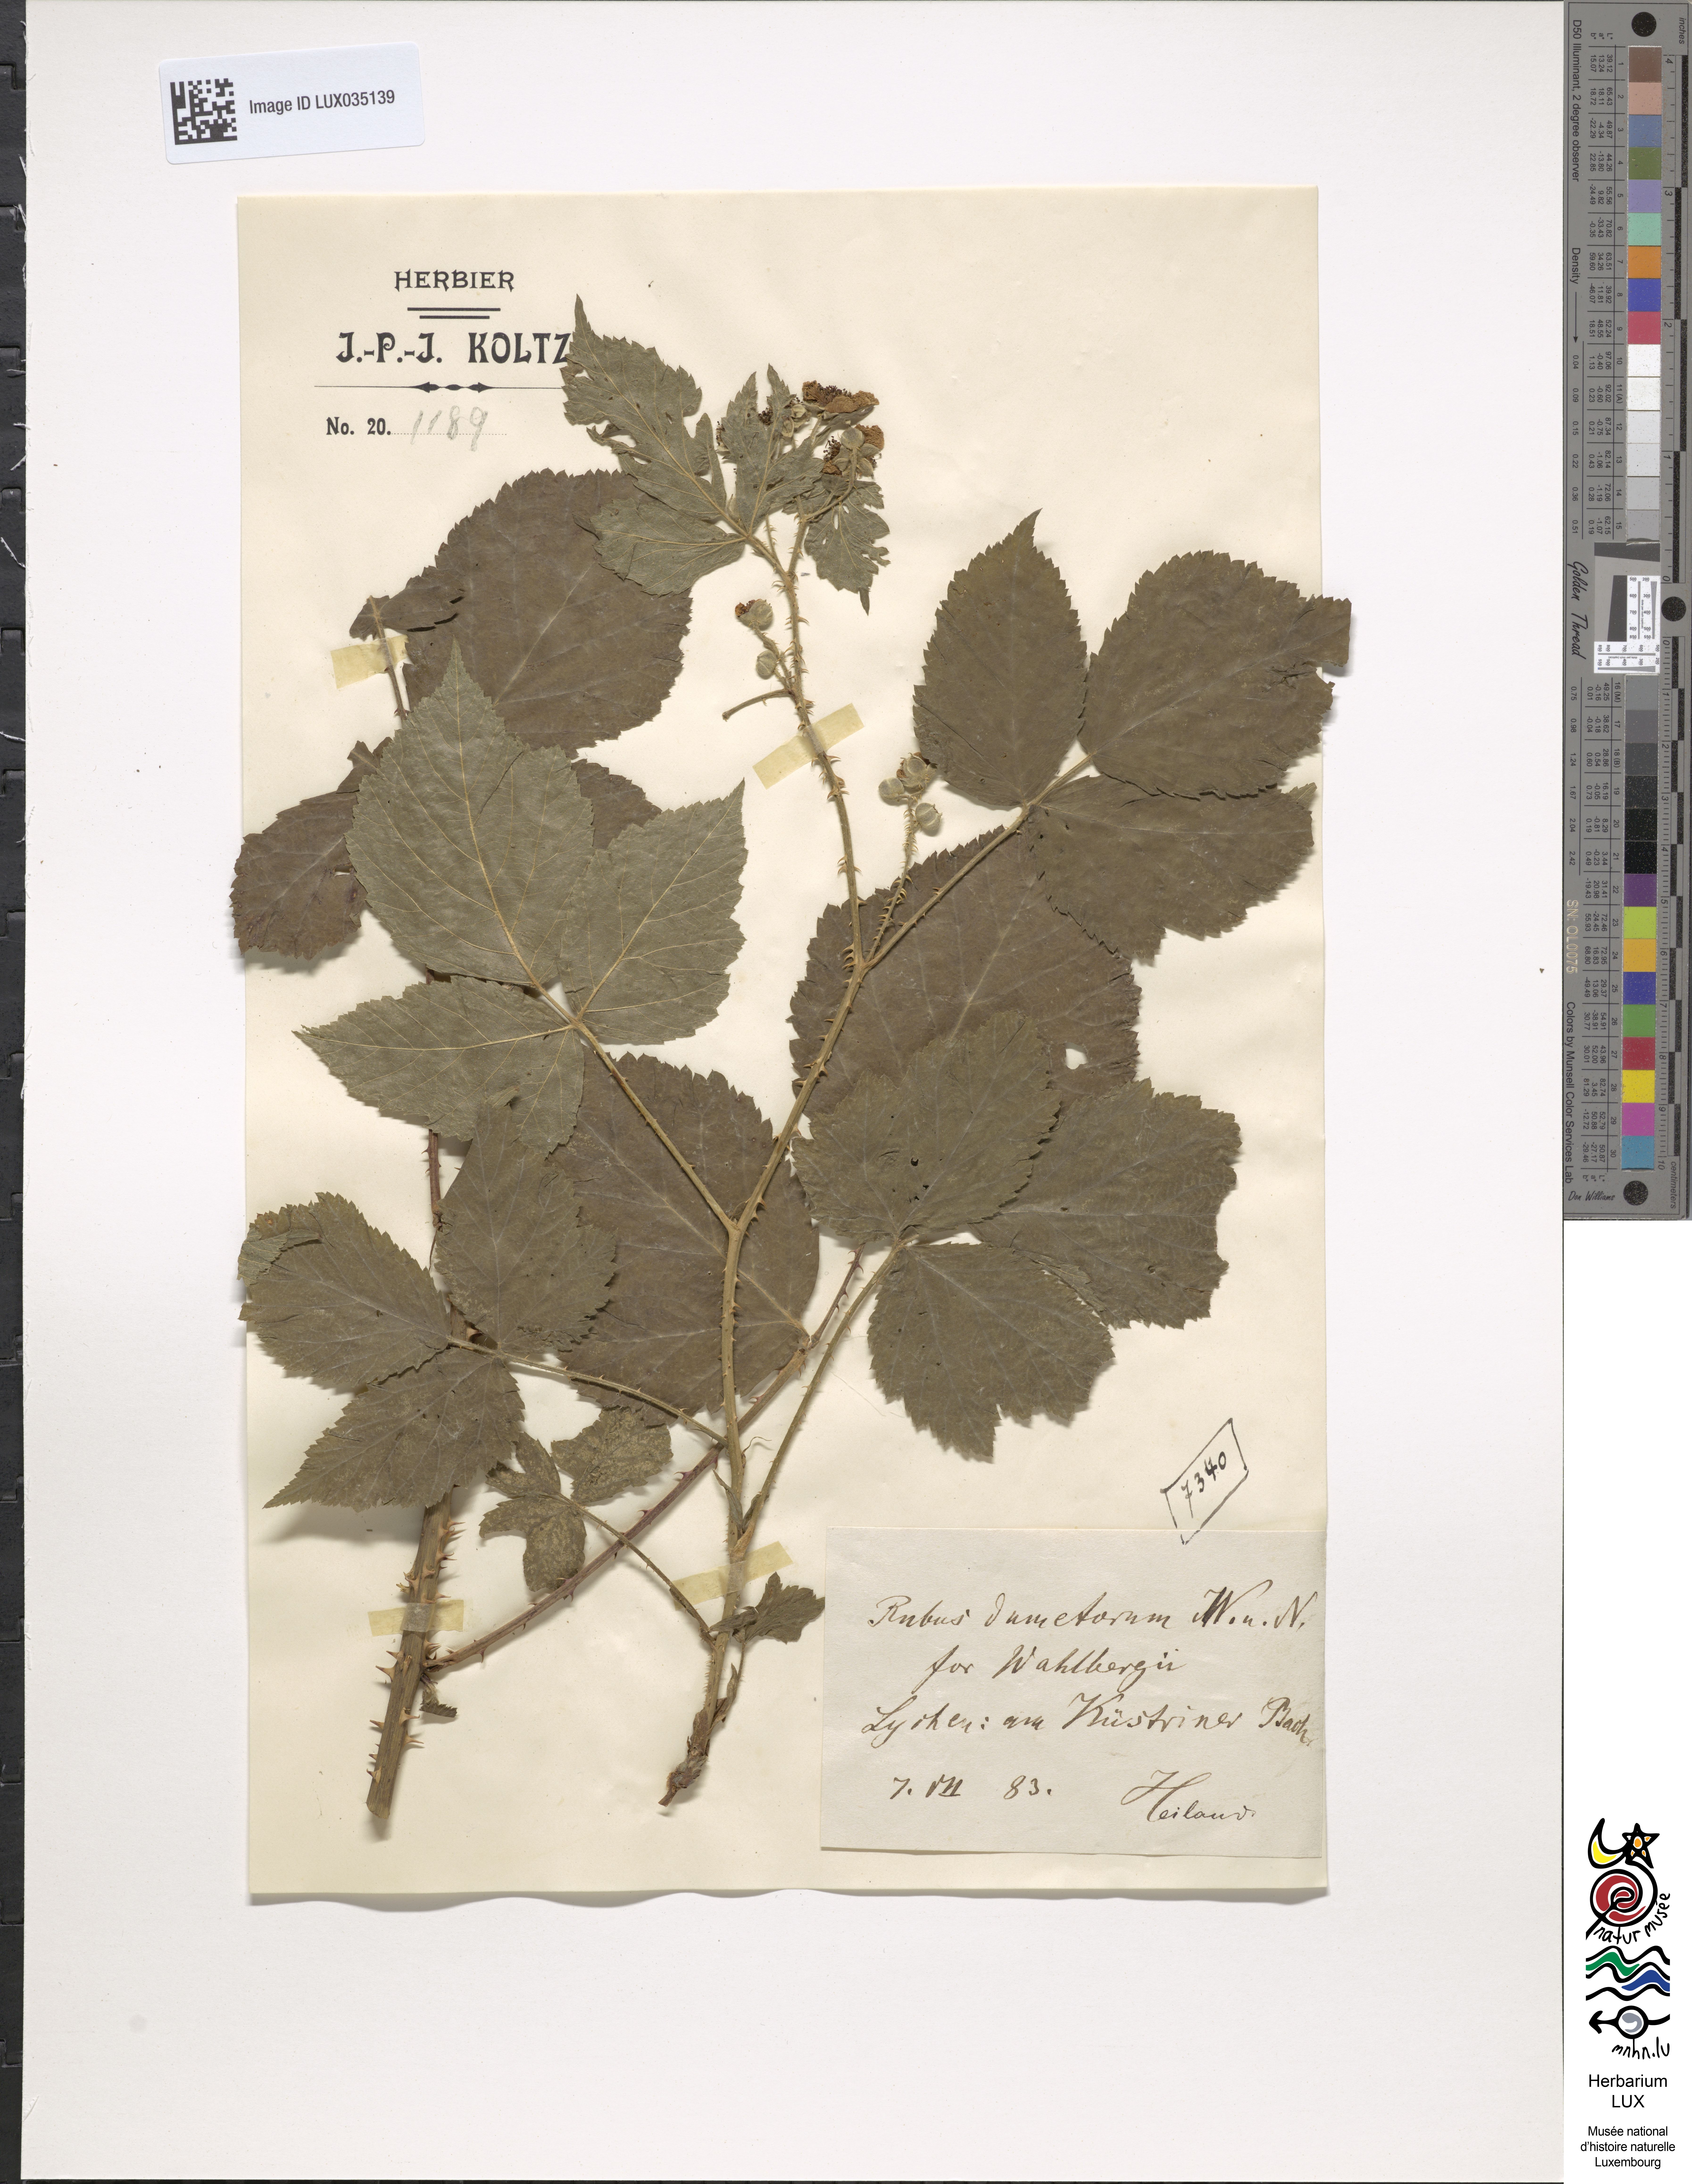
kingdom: Plantae
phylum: Tracheophyta
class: Magnoliopsida
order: Rosales
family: Rosaceae
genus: Rubus
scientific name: Rubus nemorosus
